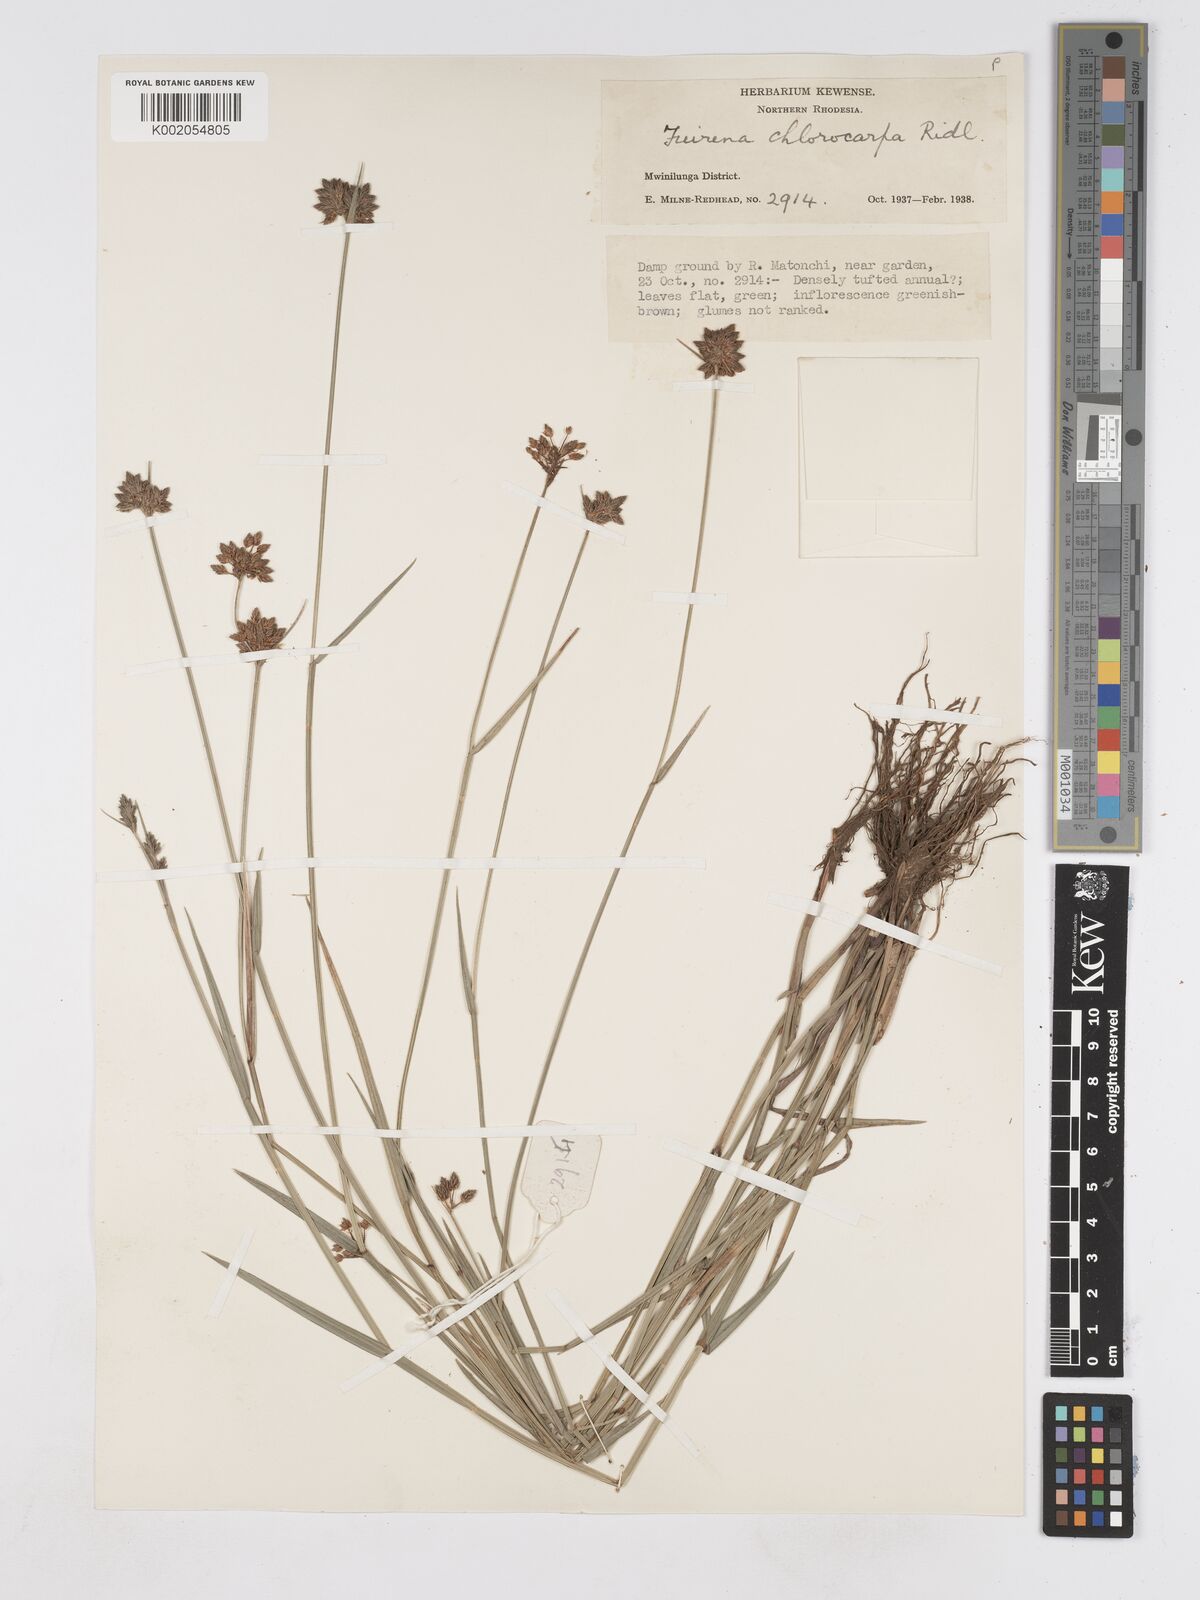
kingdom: Plantae
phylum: Tracheophyta
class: Liliopsida
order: Poales
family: Cyperaceae
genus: Fuirena
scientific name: Fuirena stricta
